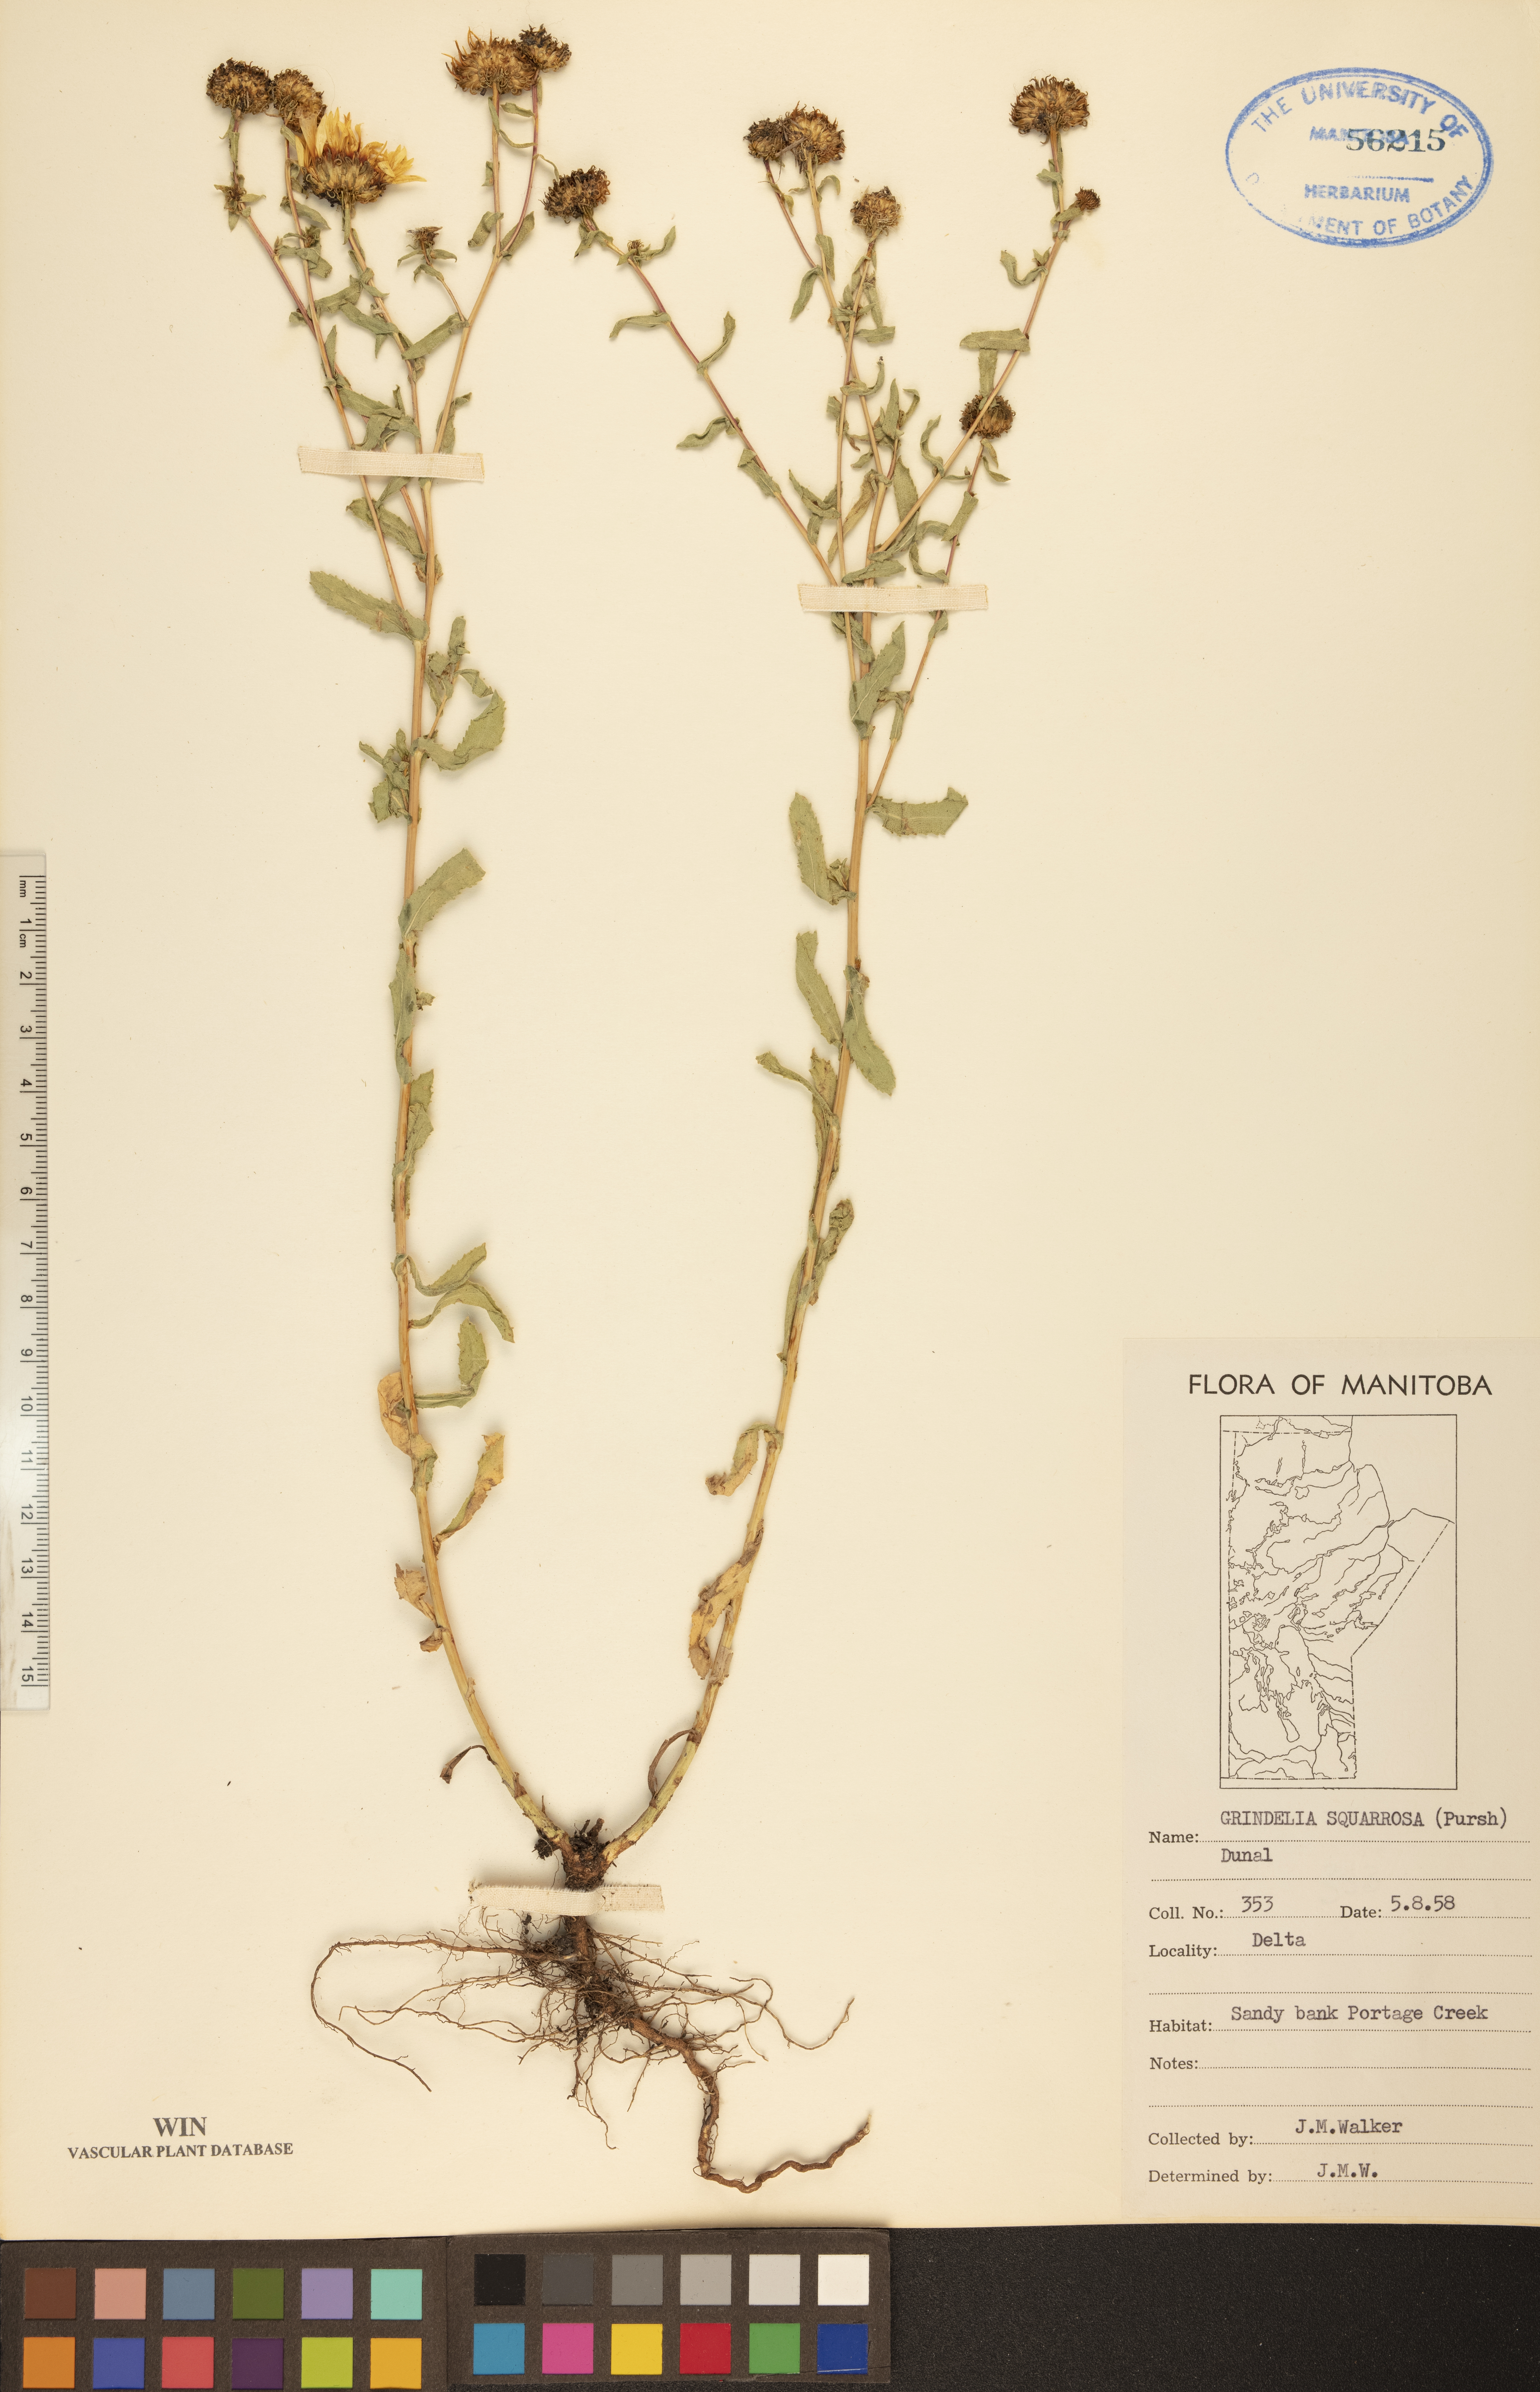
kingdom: Plantae
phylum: Tracheophyta
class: Magnoliopsida
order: Asterales
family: Asteraceae
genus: Grindelia
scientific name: Grindelia squarrosa
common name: Curly-cup gumweed
